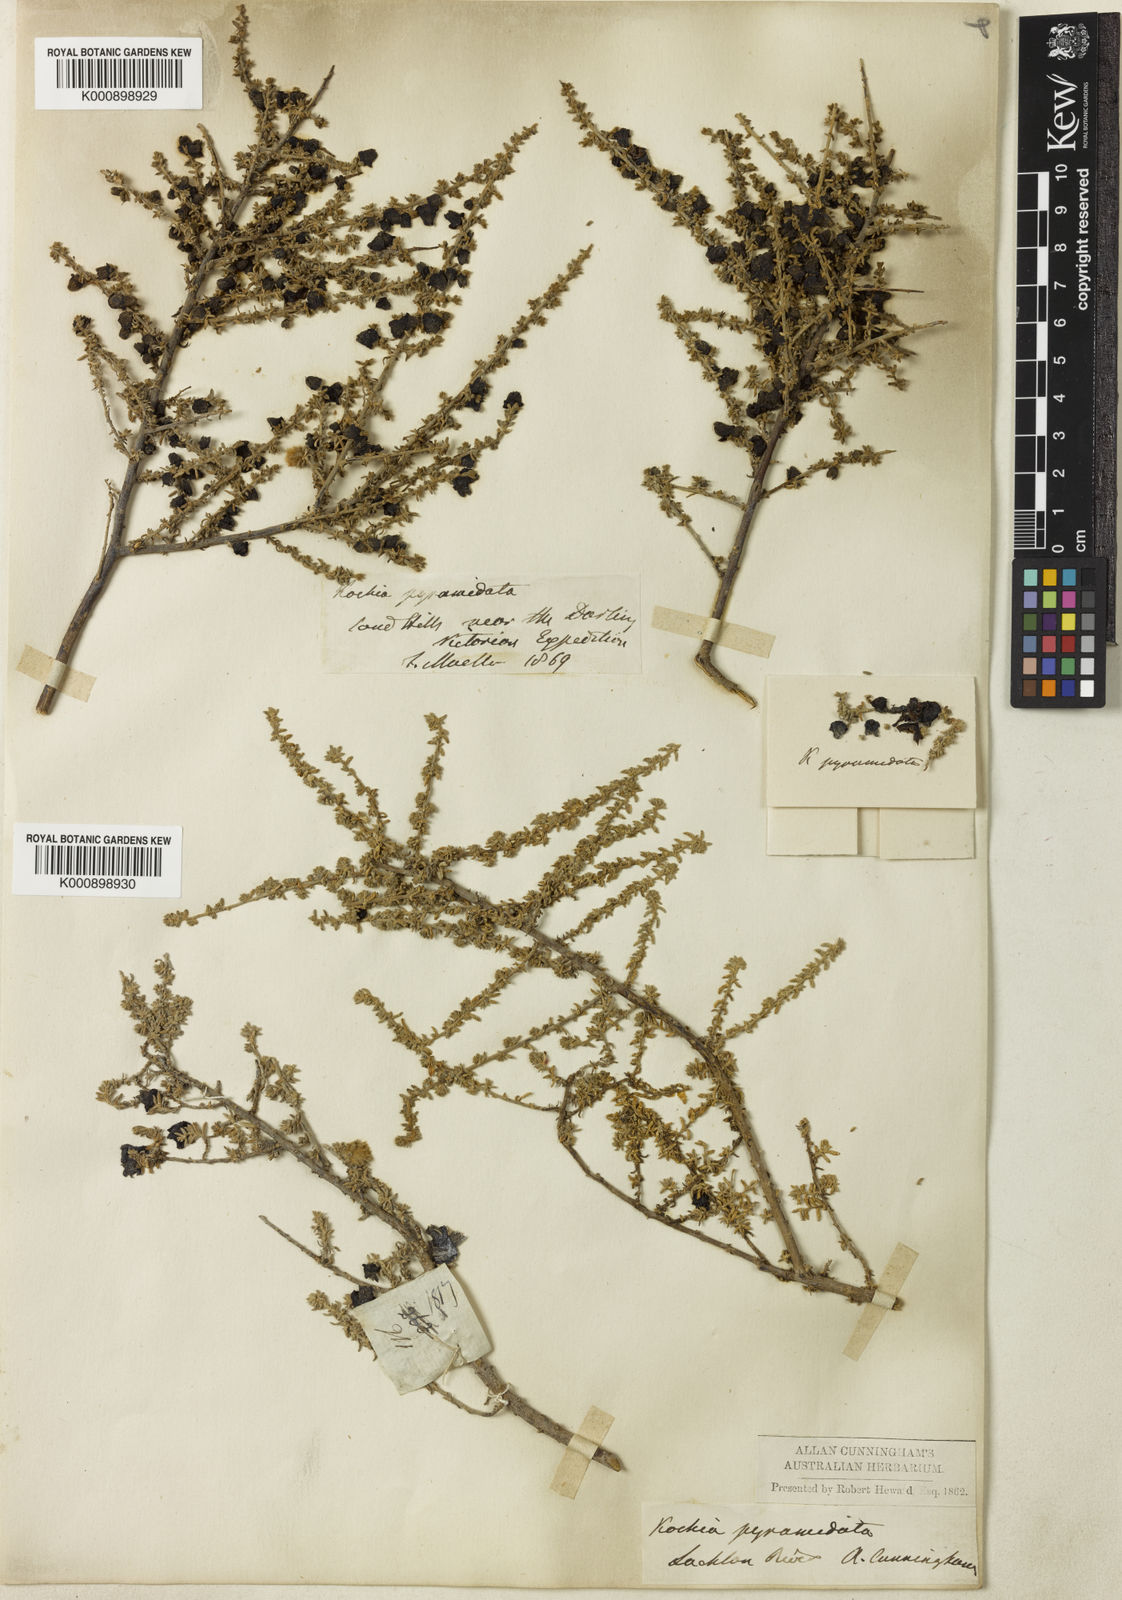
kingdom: Plantae
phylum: Tracheophyta
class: Magnoliopsida
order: Caryophyllales
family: Amaranthaceae
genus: Maireana
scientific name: Maireana pyramidata
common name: Sagobush
